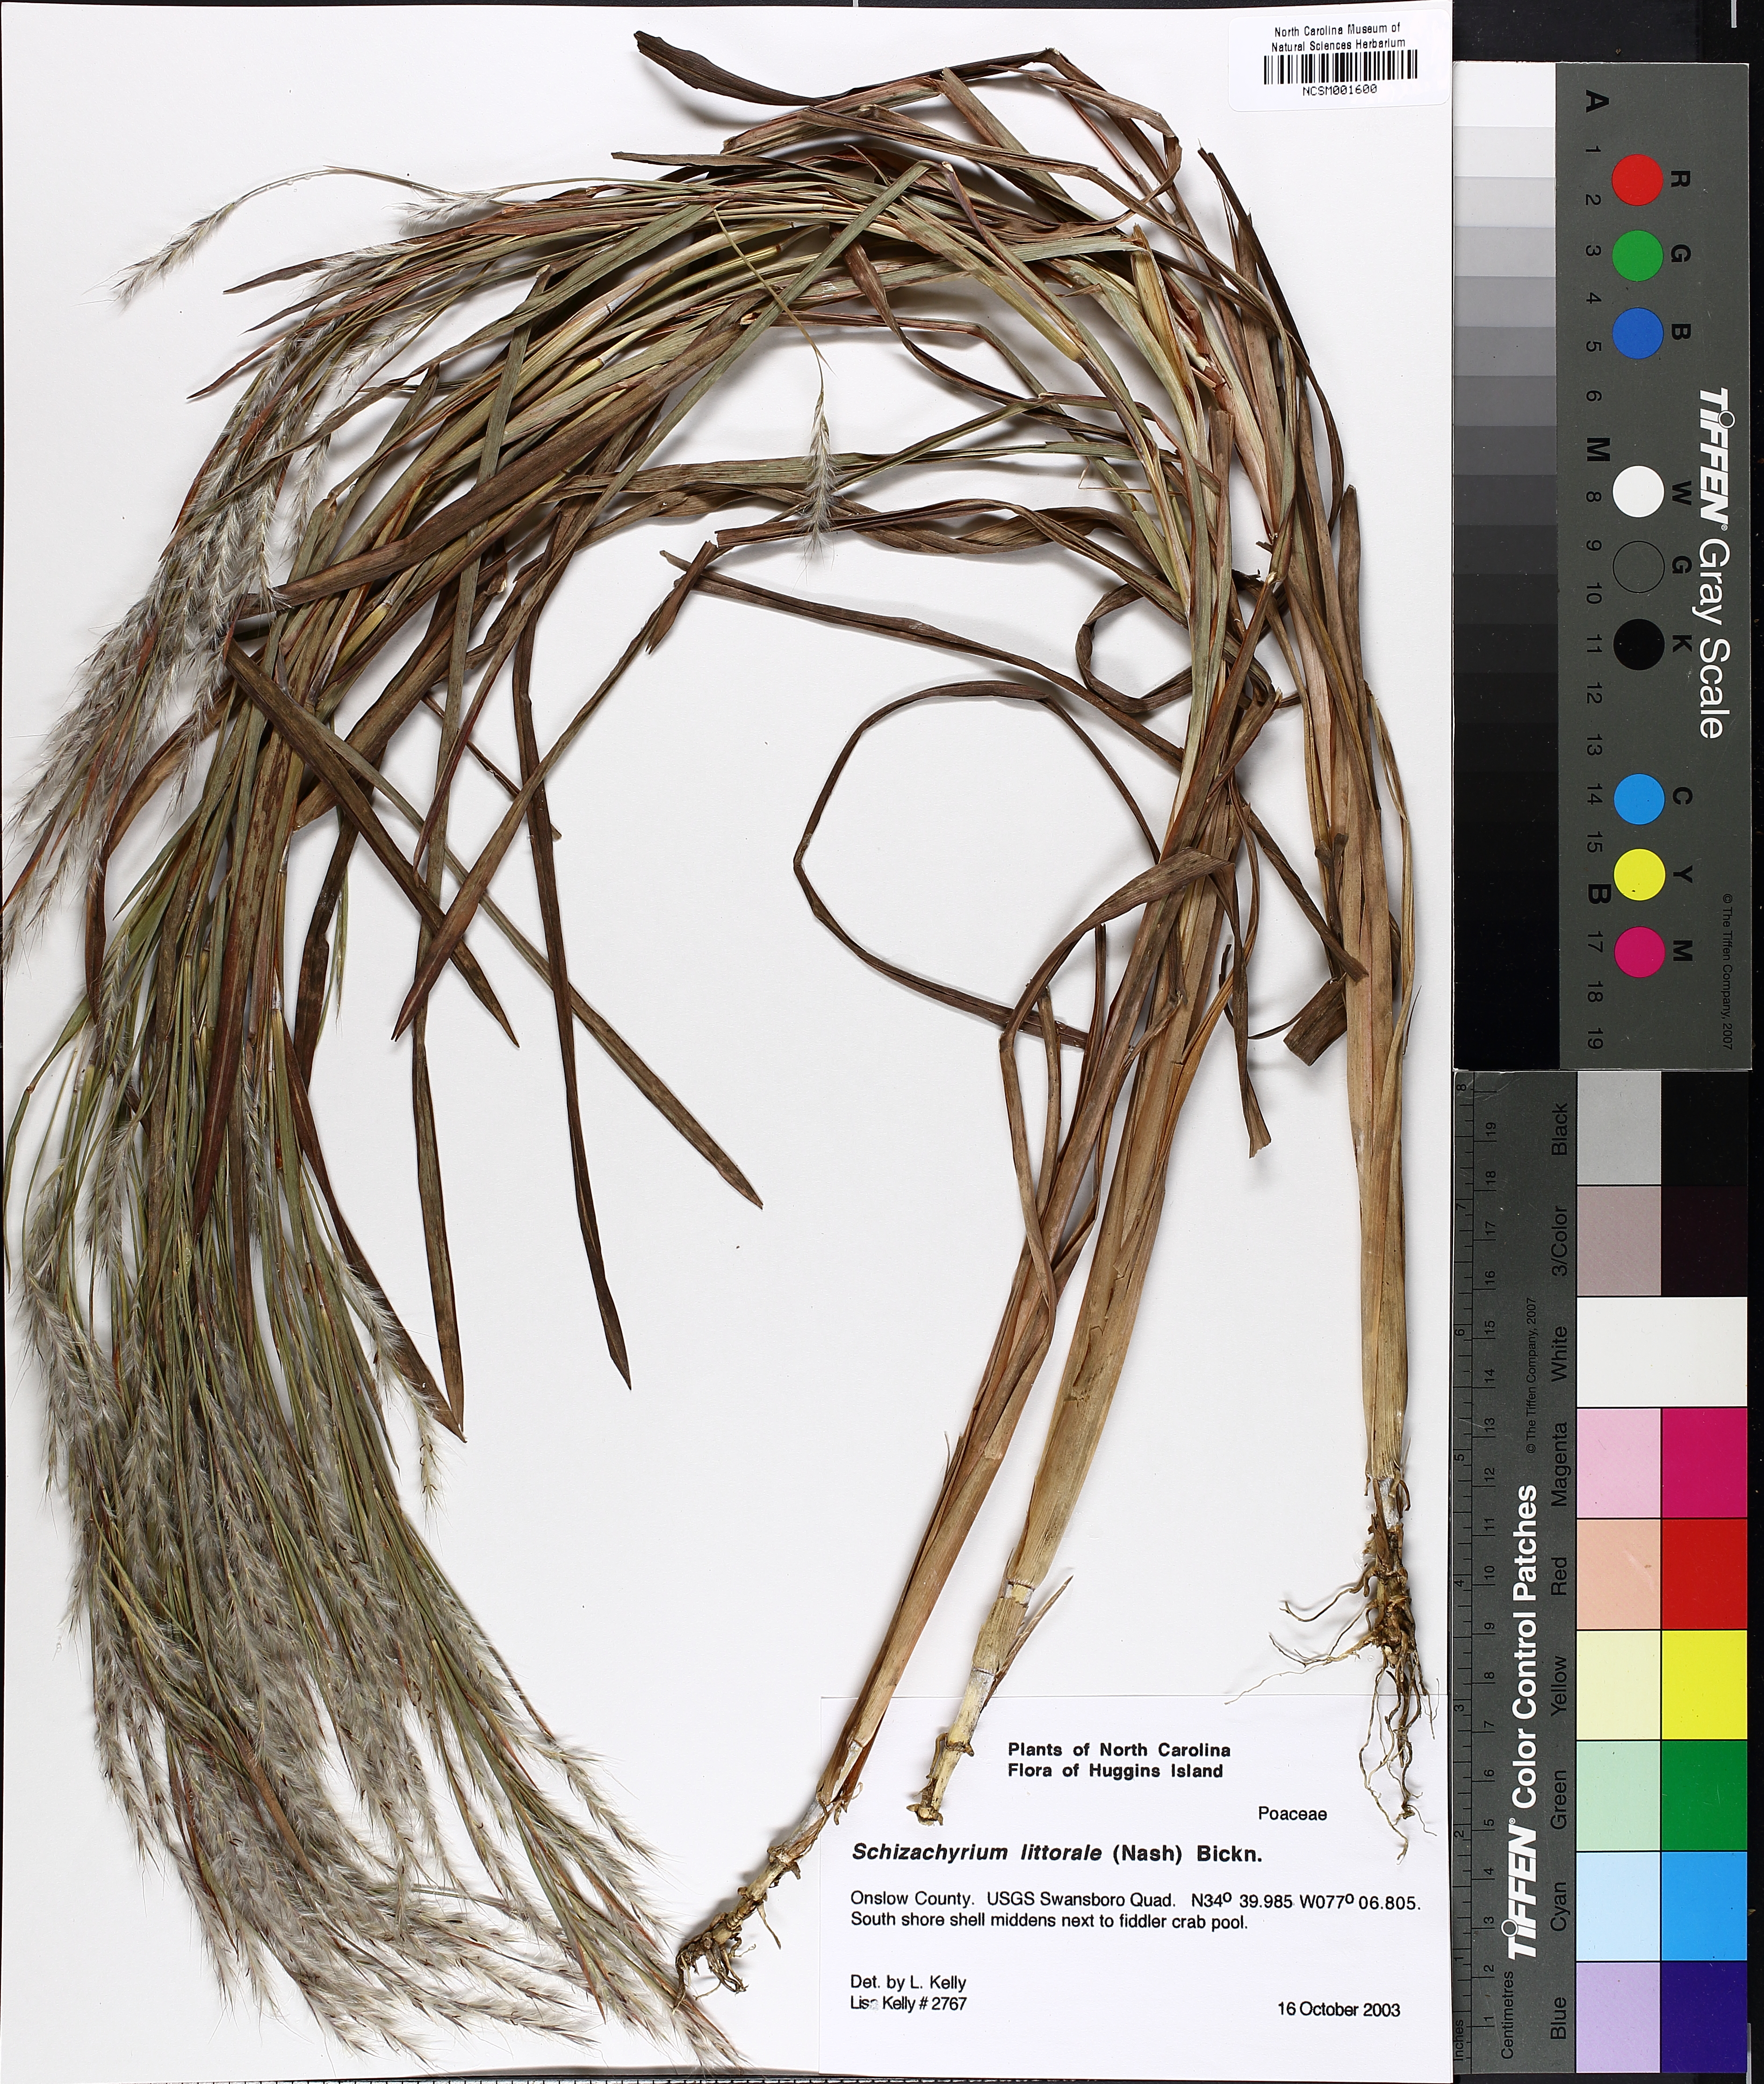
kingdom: Plantae
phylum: Tracheophyta
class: Liliopsida
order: Poales
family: Poaceae
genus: Schizachyrium
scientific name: Schizachyrium scoparium
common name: Little bluestem
